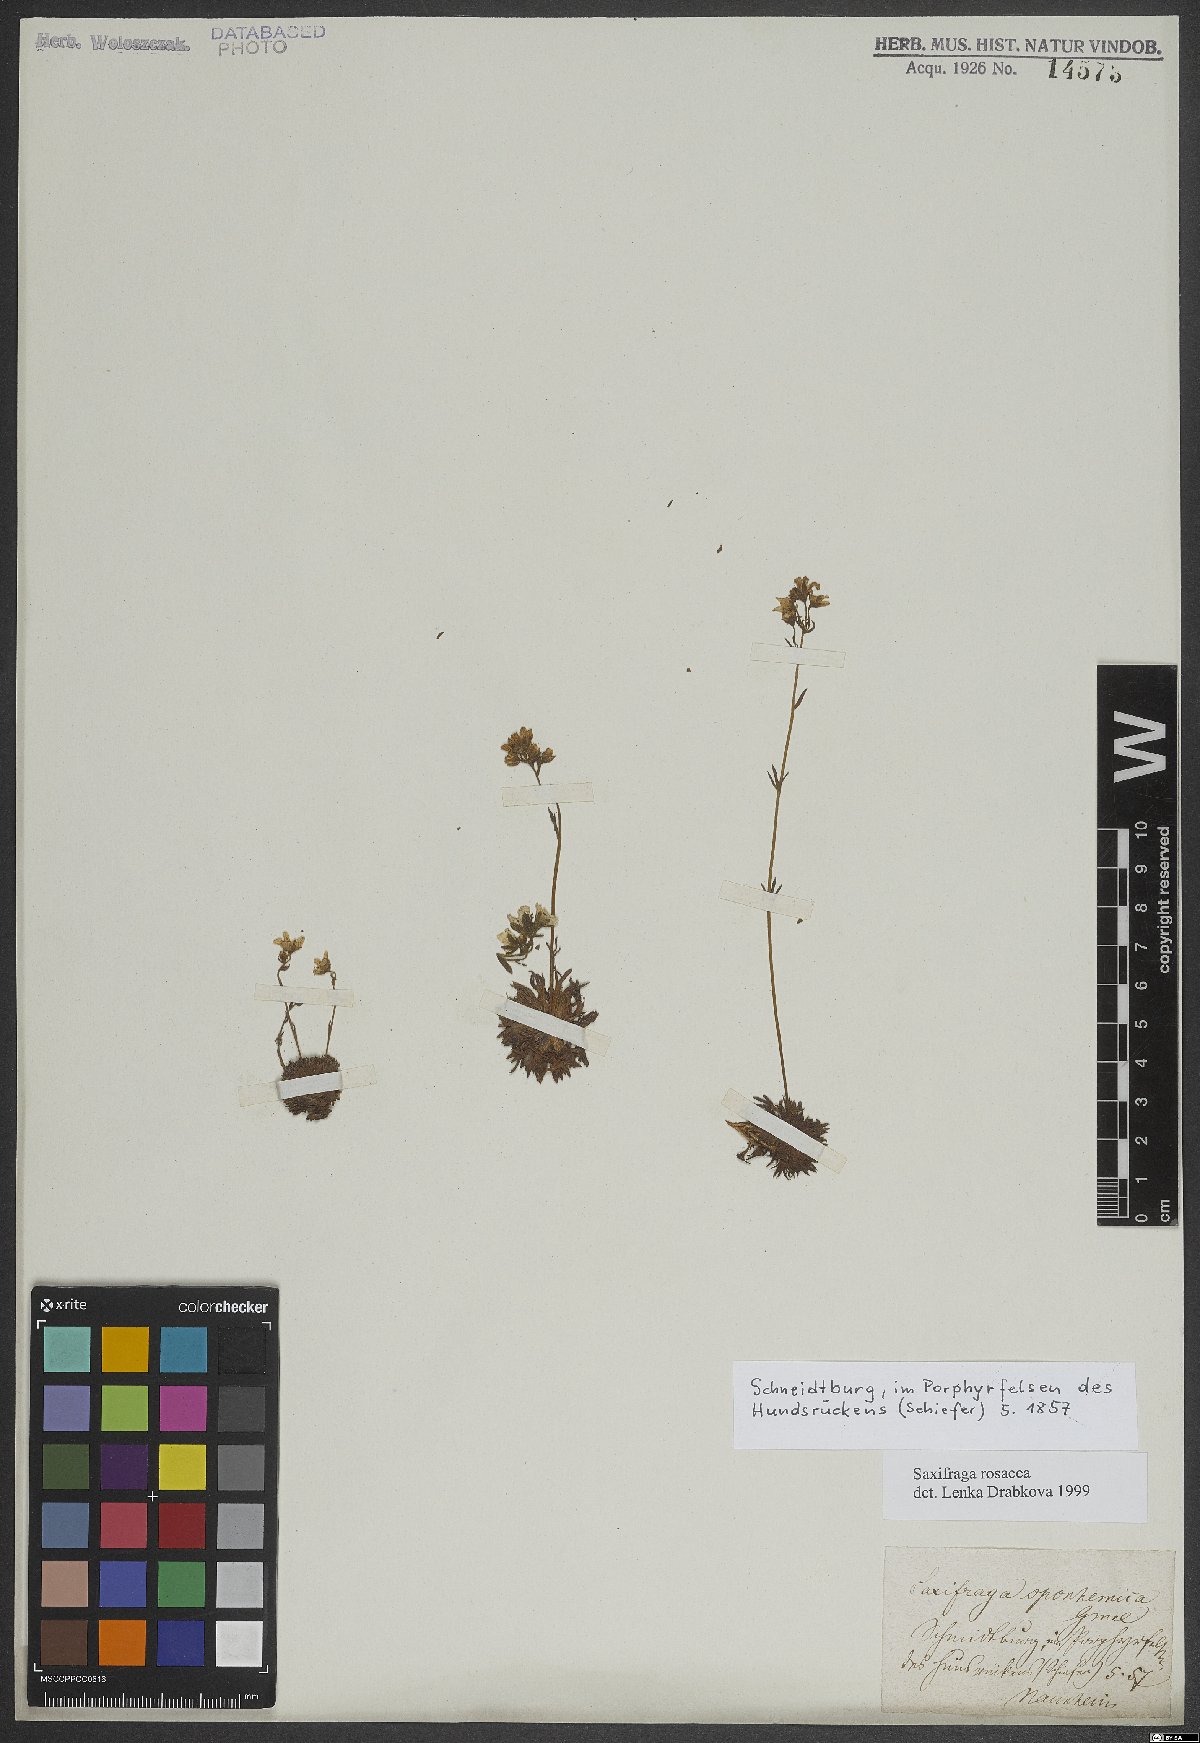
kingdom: Plantae
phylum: Tracheophyta
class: Magnoliopsida
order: Saxifragales
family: Saxifragaceae
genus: Saxifraga
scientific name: Saxifraga rosacea
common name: Irish saxifrage
